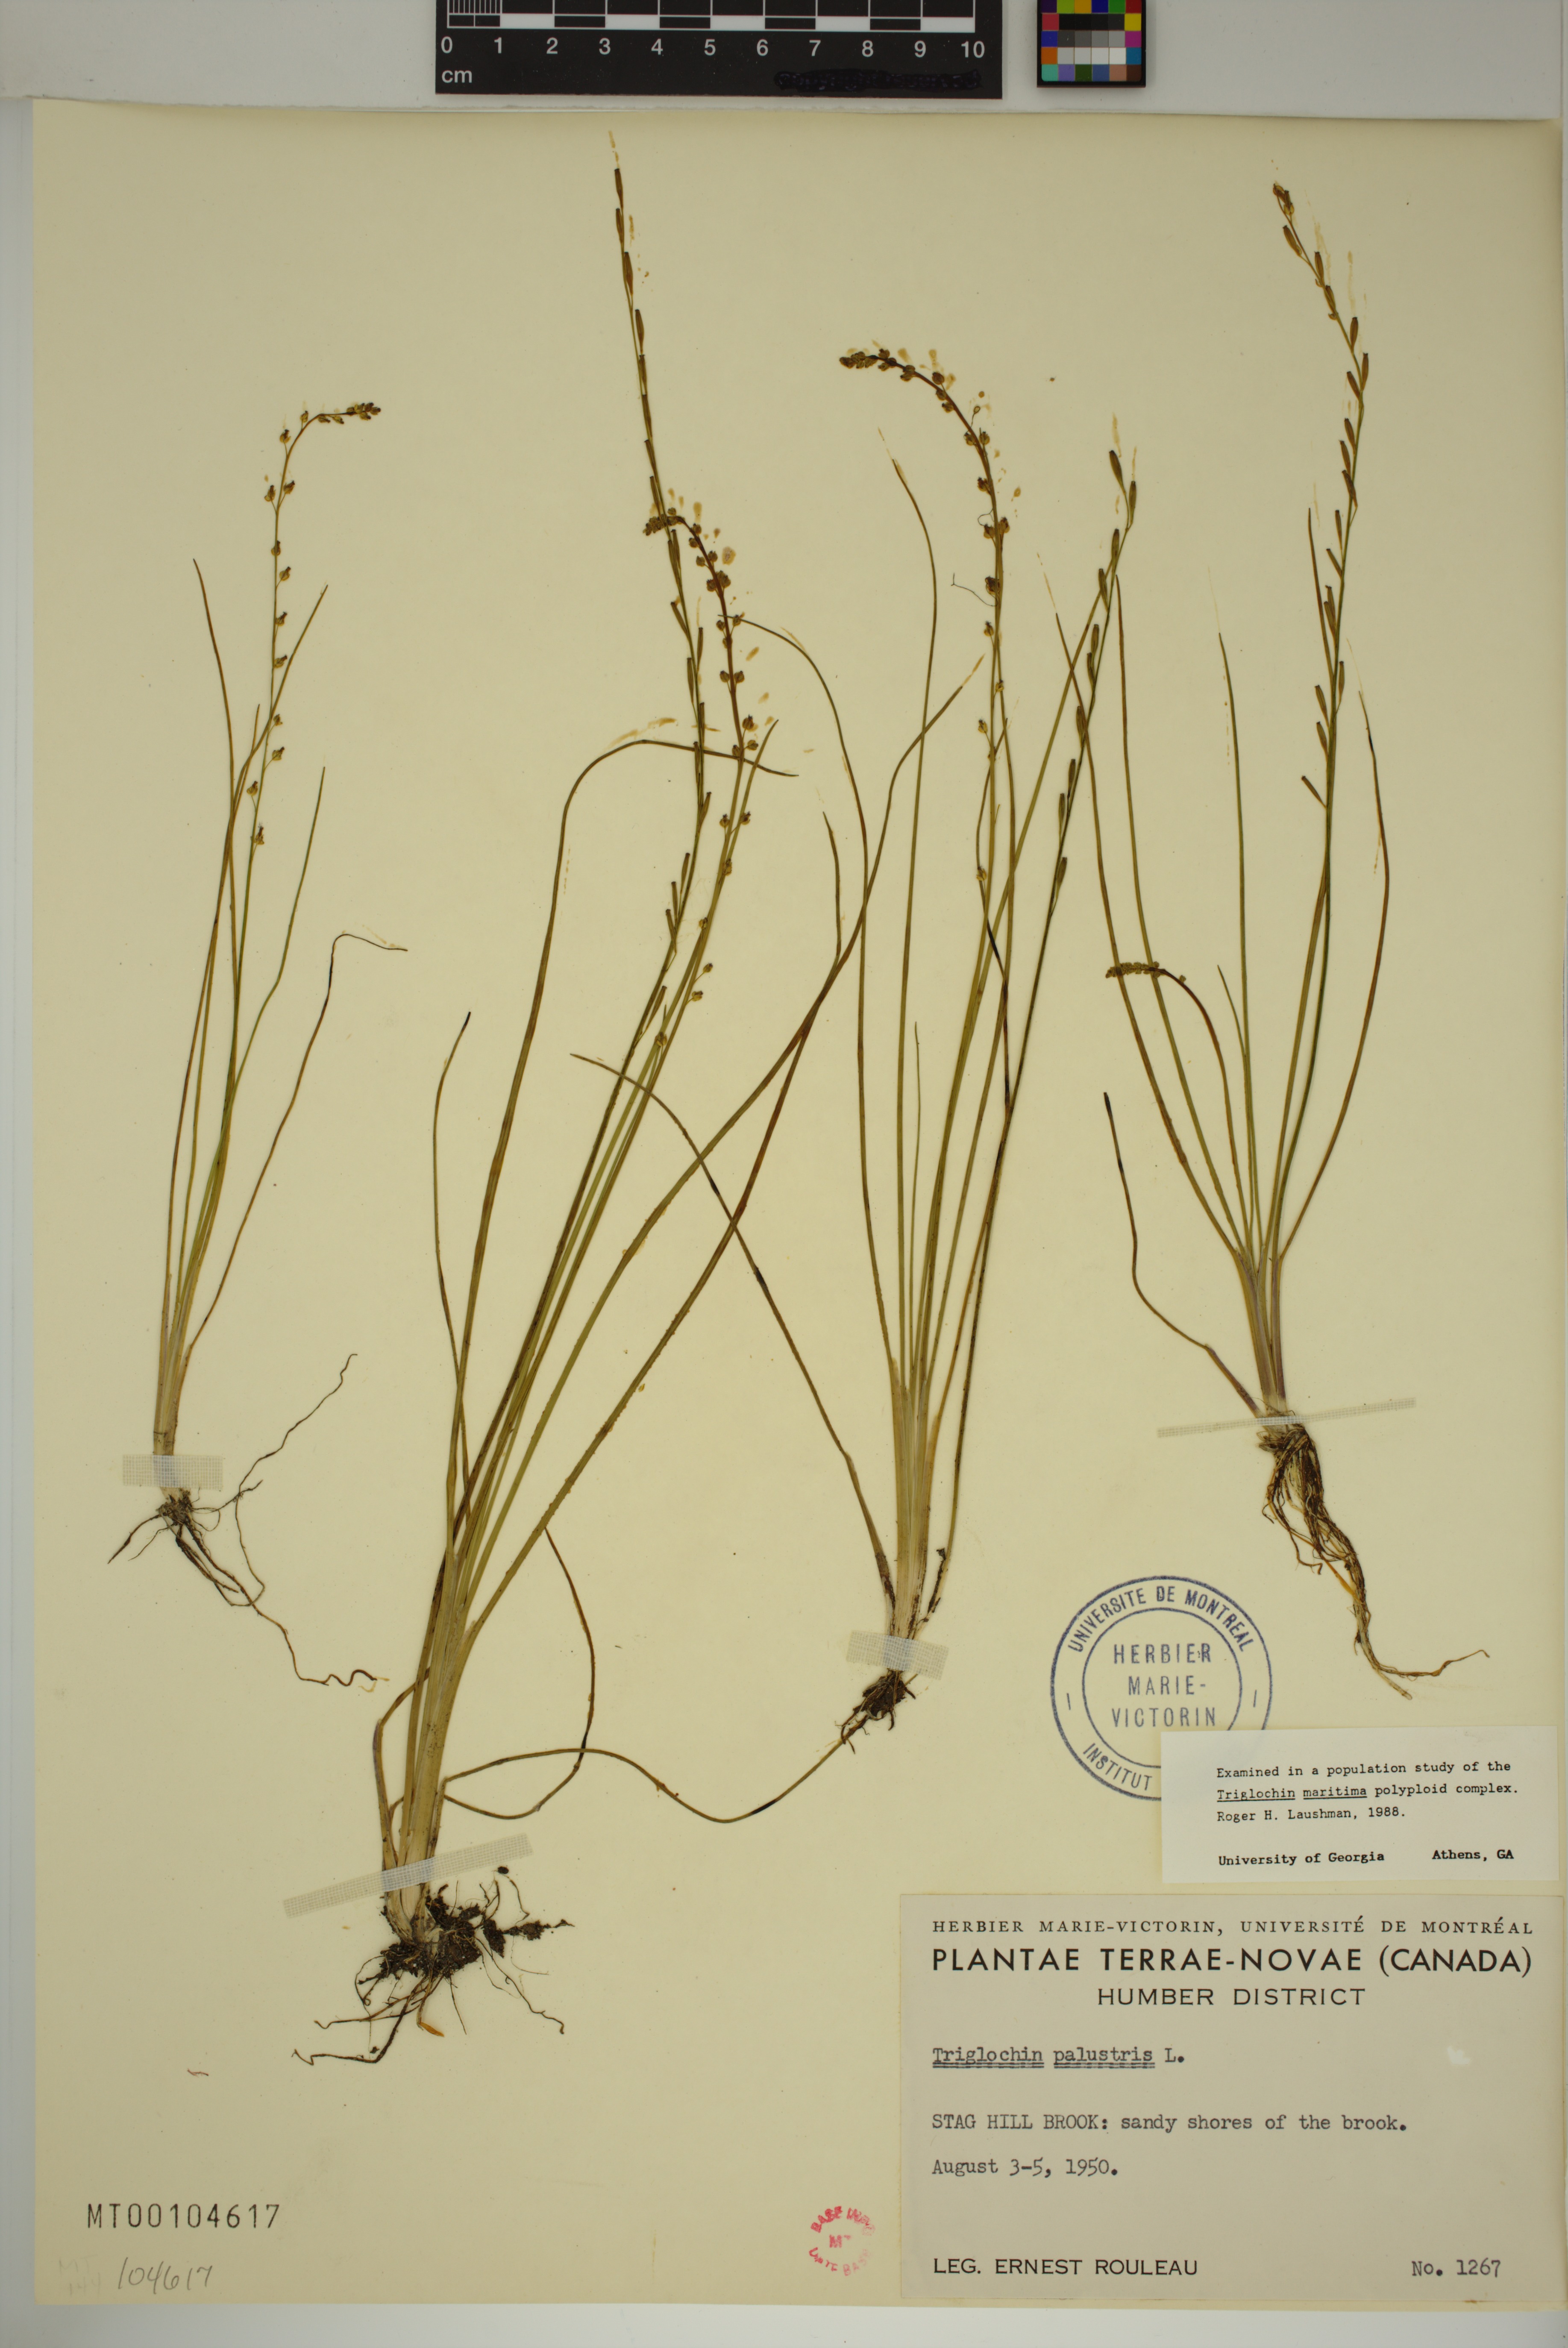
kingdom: Plantae
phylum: Tracheophyta
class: Liliopsida
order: Alismatales
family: Juncaginaceae
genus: Triglochin
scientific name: Triglochin palustris
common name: Marsh arrowgrass
